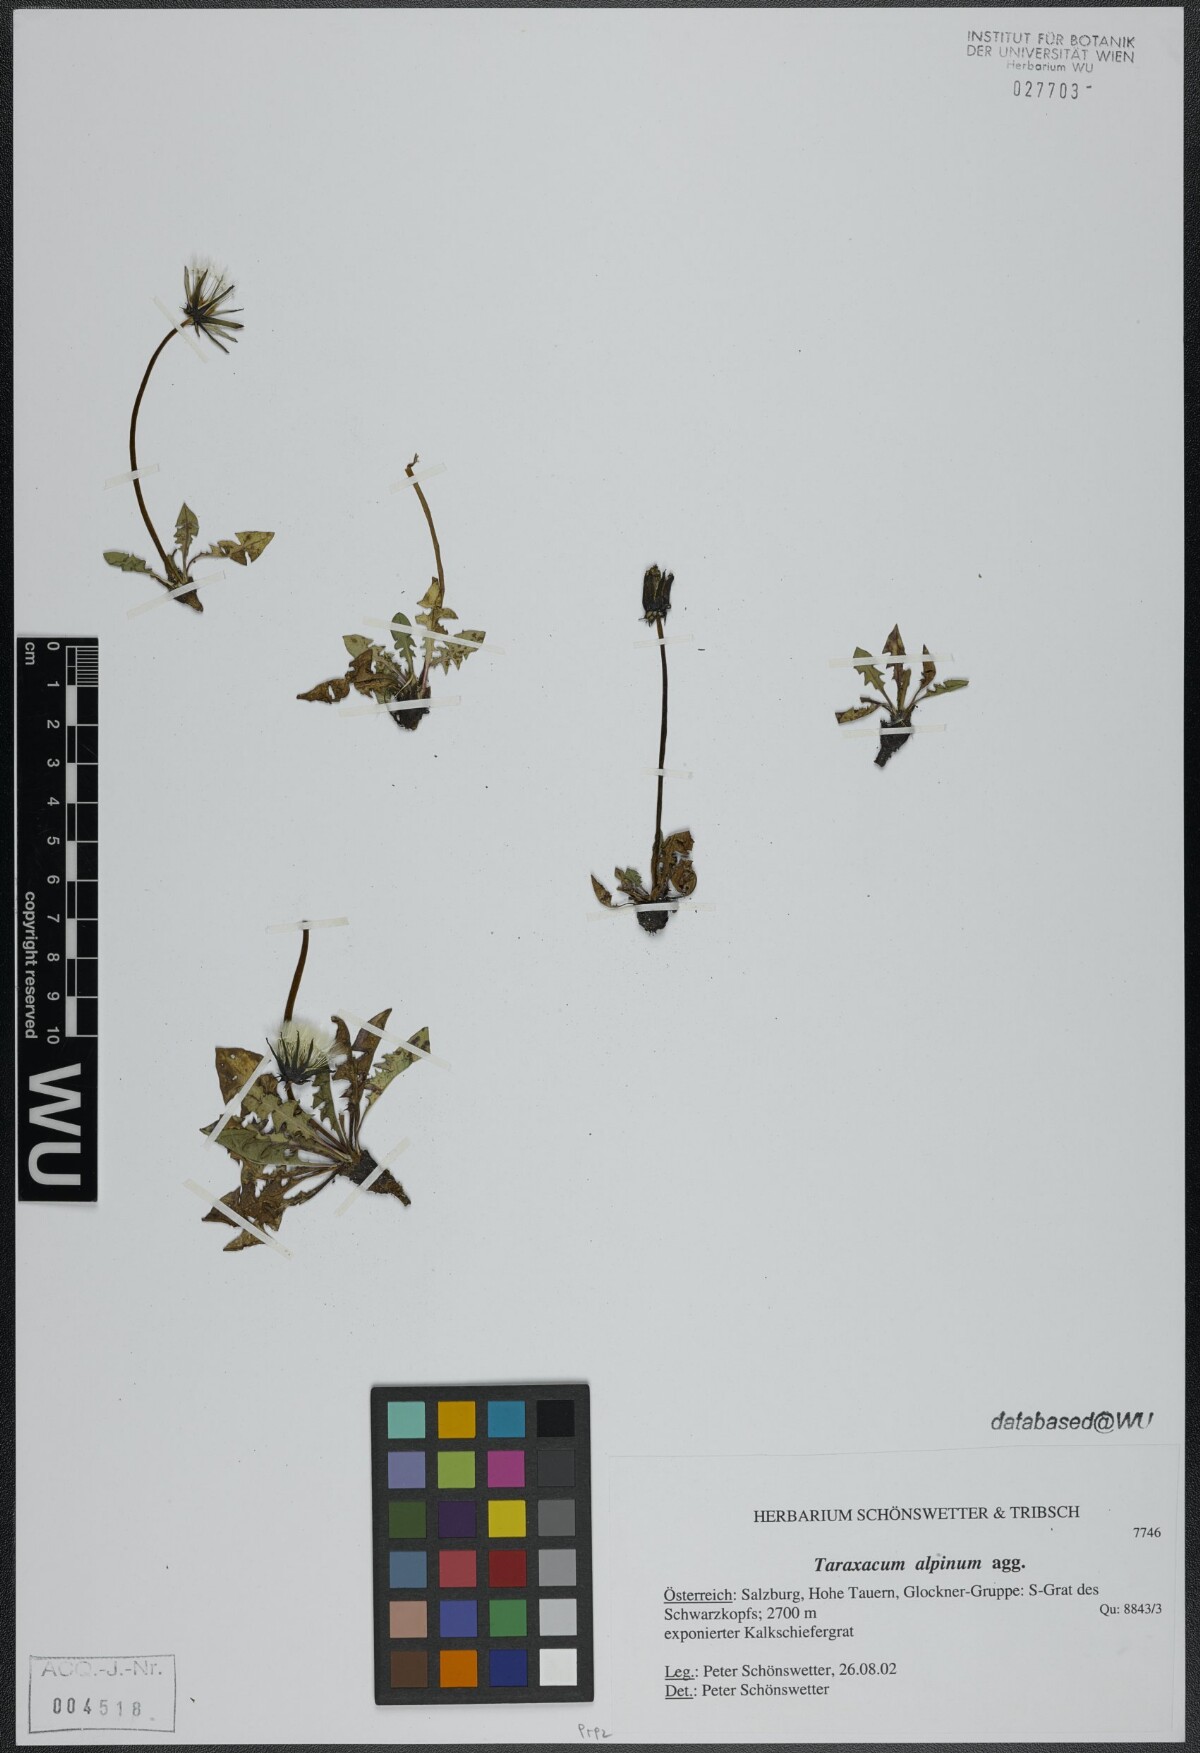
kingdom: Plantae
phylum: Tracheophyta
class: Magnoliopsida
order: Asterales
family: Asteraceae
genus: Taraxacum
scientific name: Taraxacum alpinum
